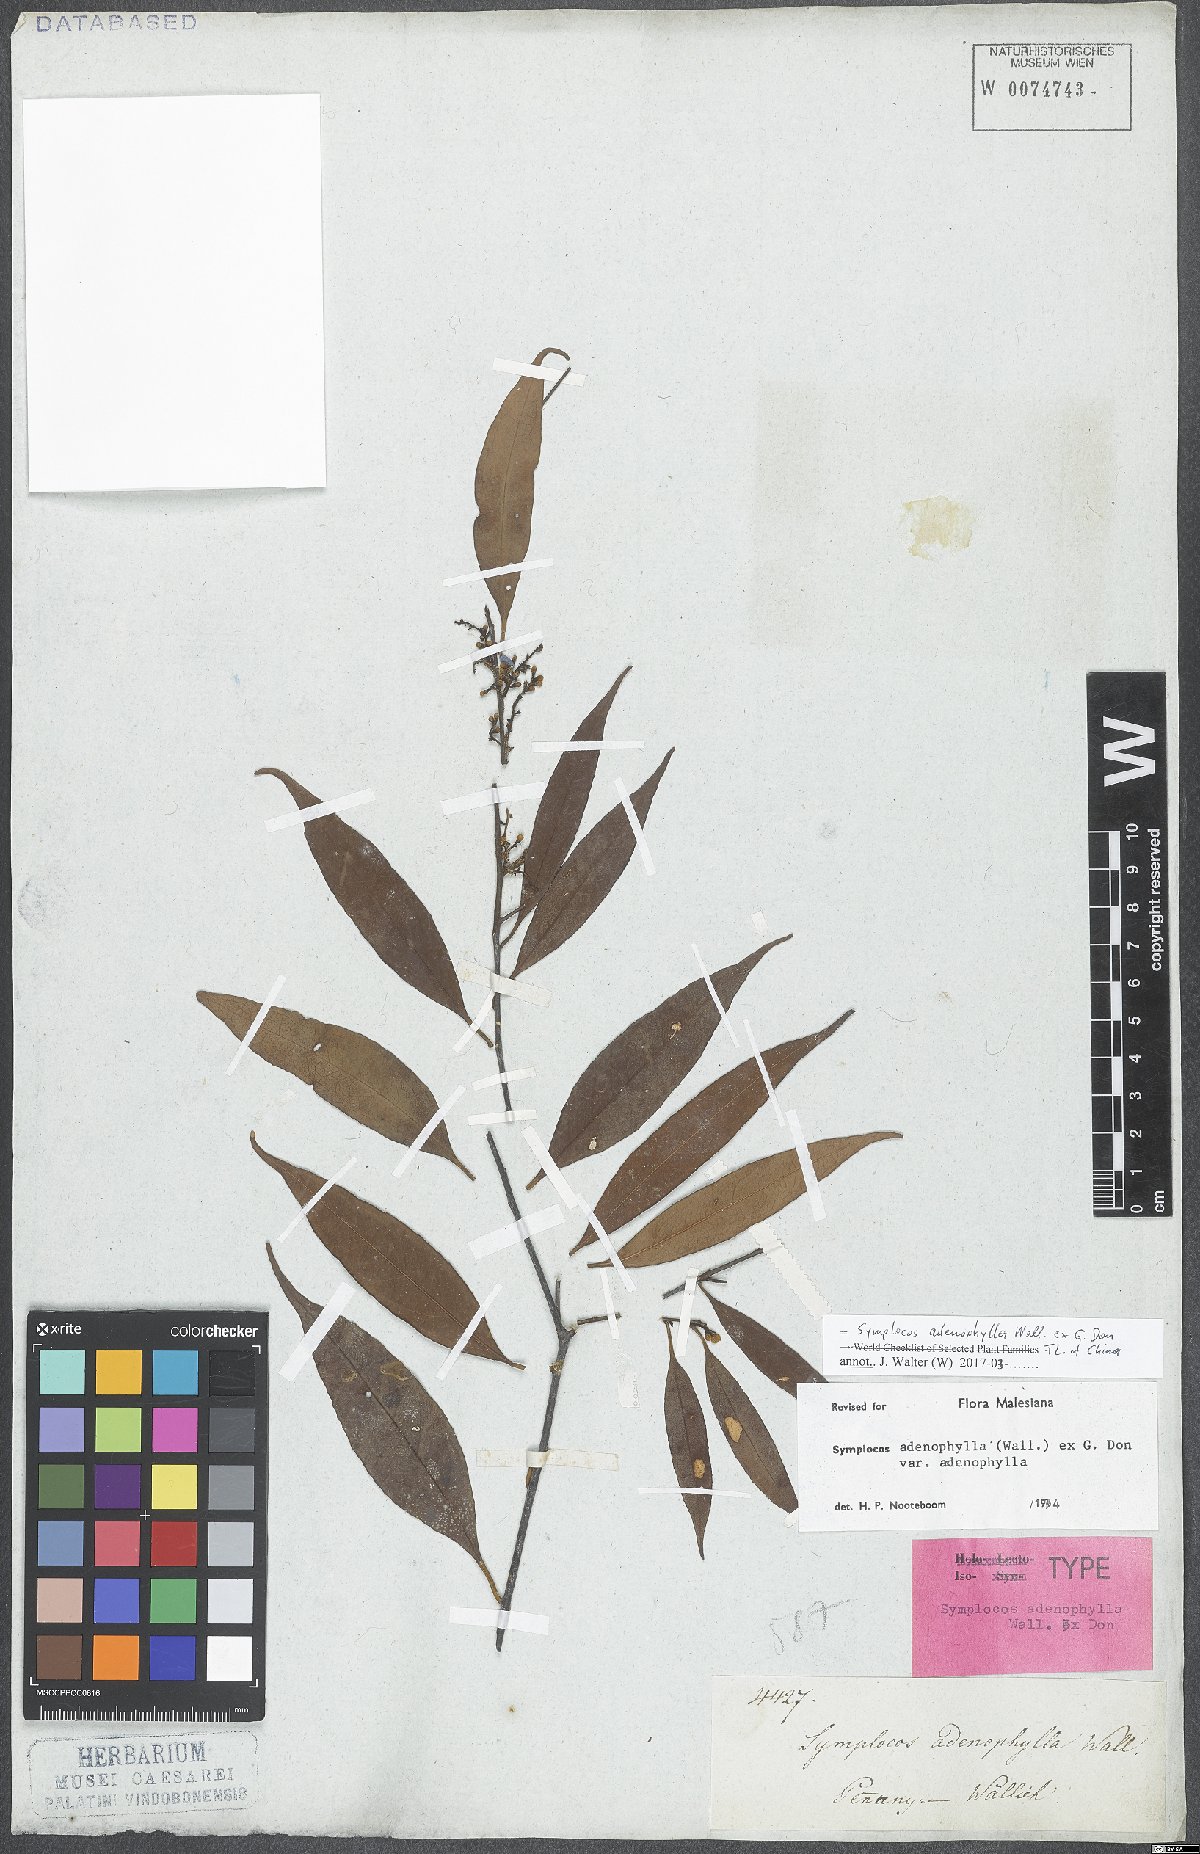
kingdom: Plantae
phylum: Tracheophyta
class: Magnoliopsida
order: Ericales
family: Symplocaceae
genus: Symplocos
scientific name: Symplocos adenophylla
